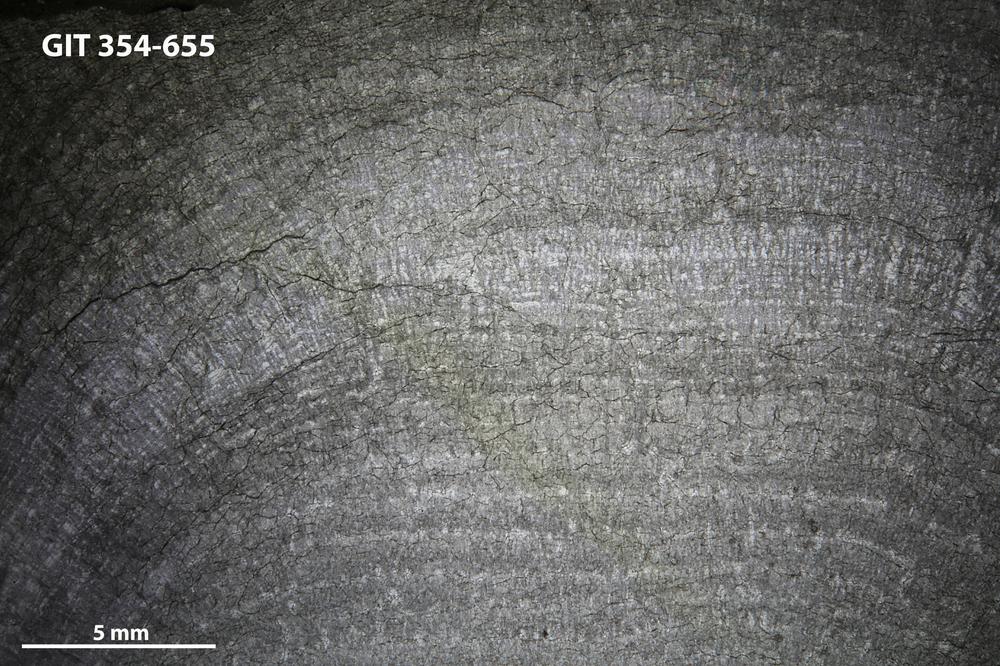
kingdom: Animalia
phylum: Porifera
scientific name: Porifera
